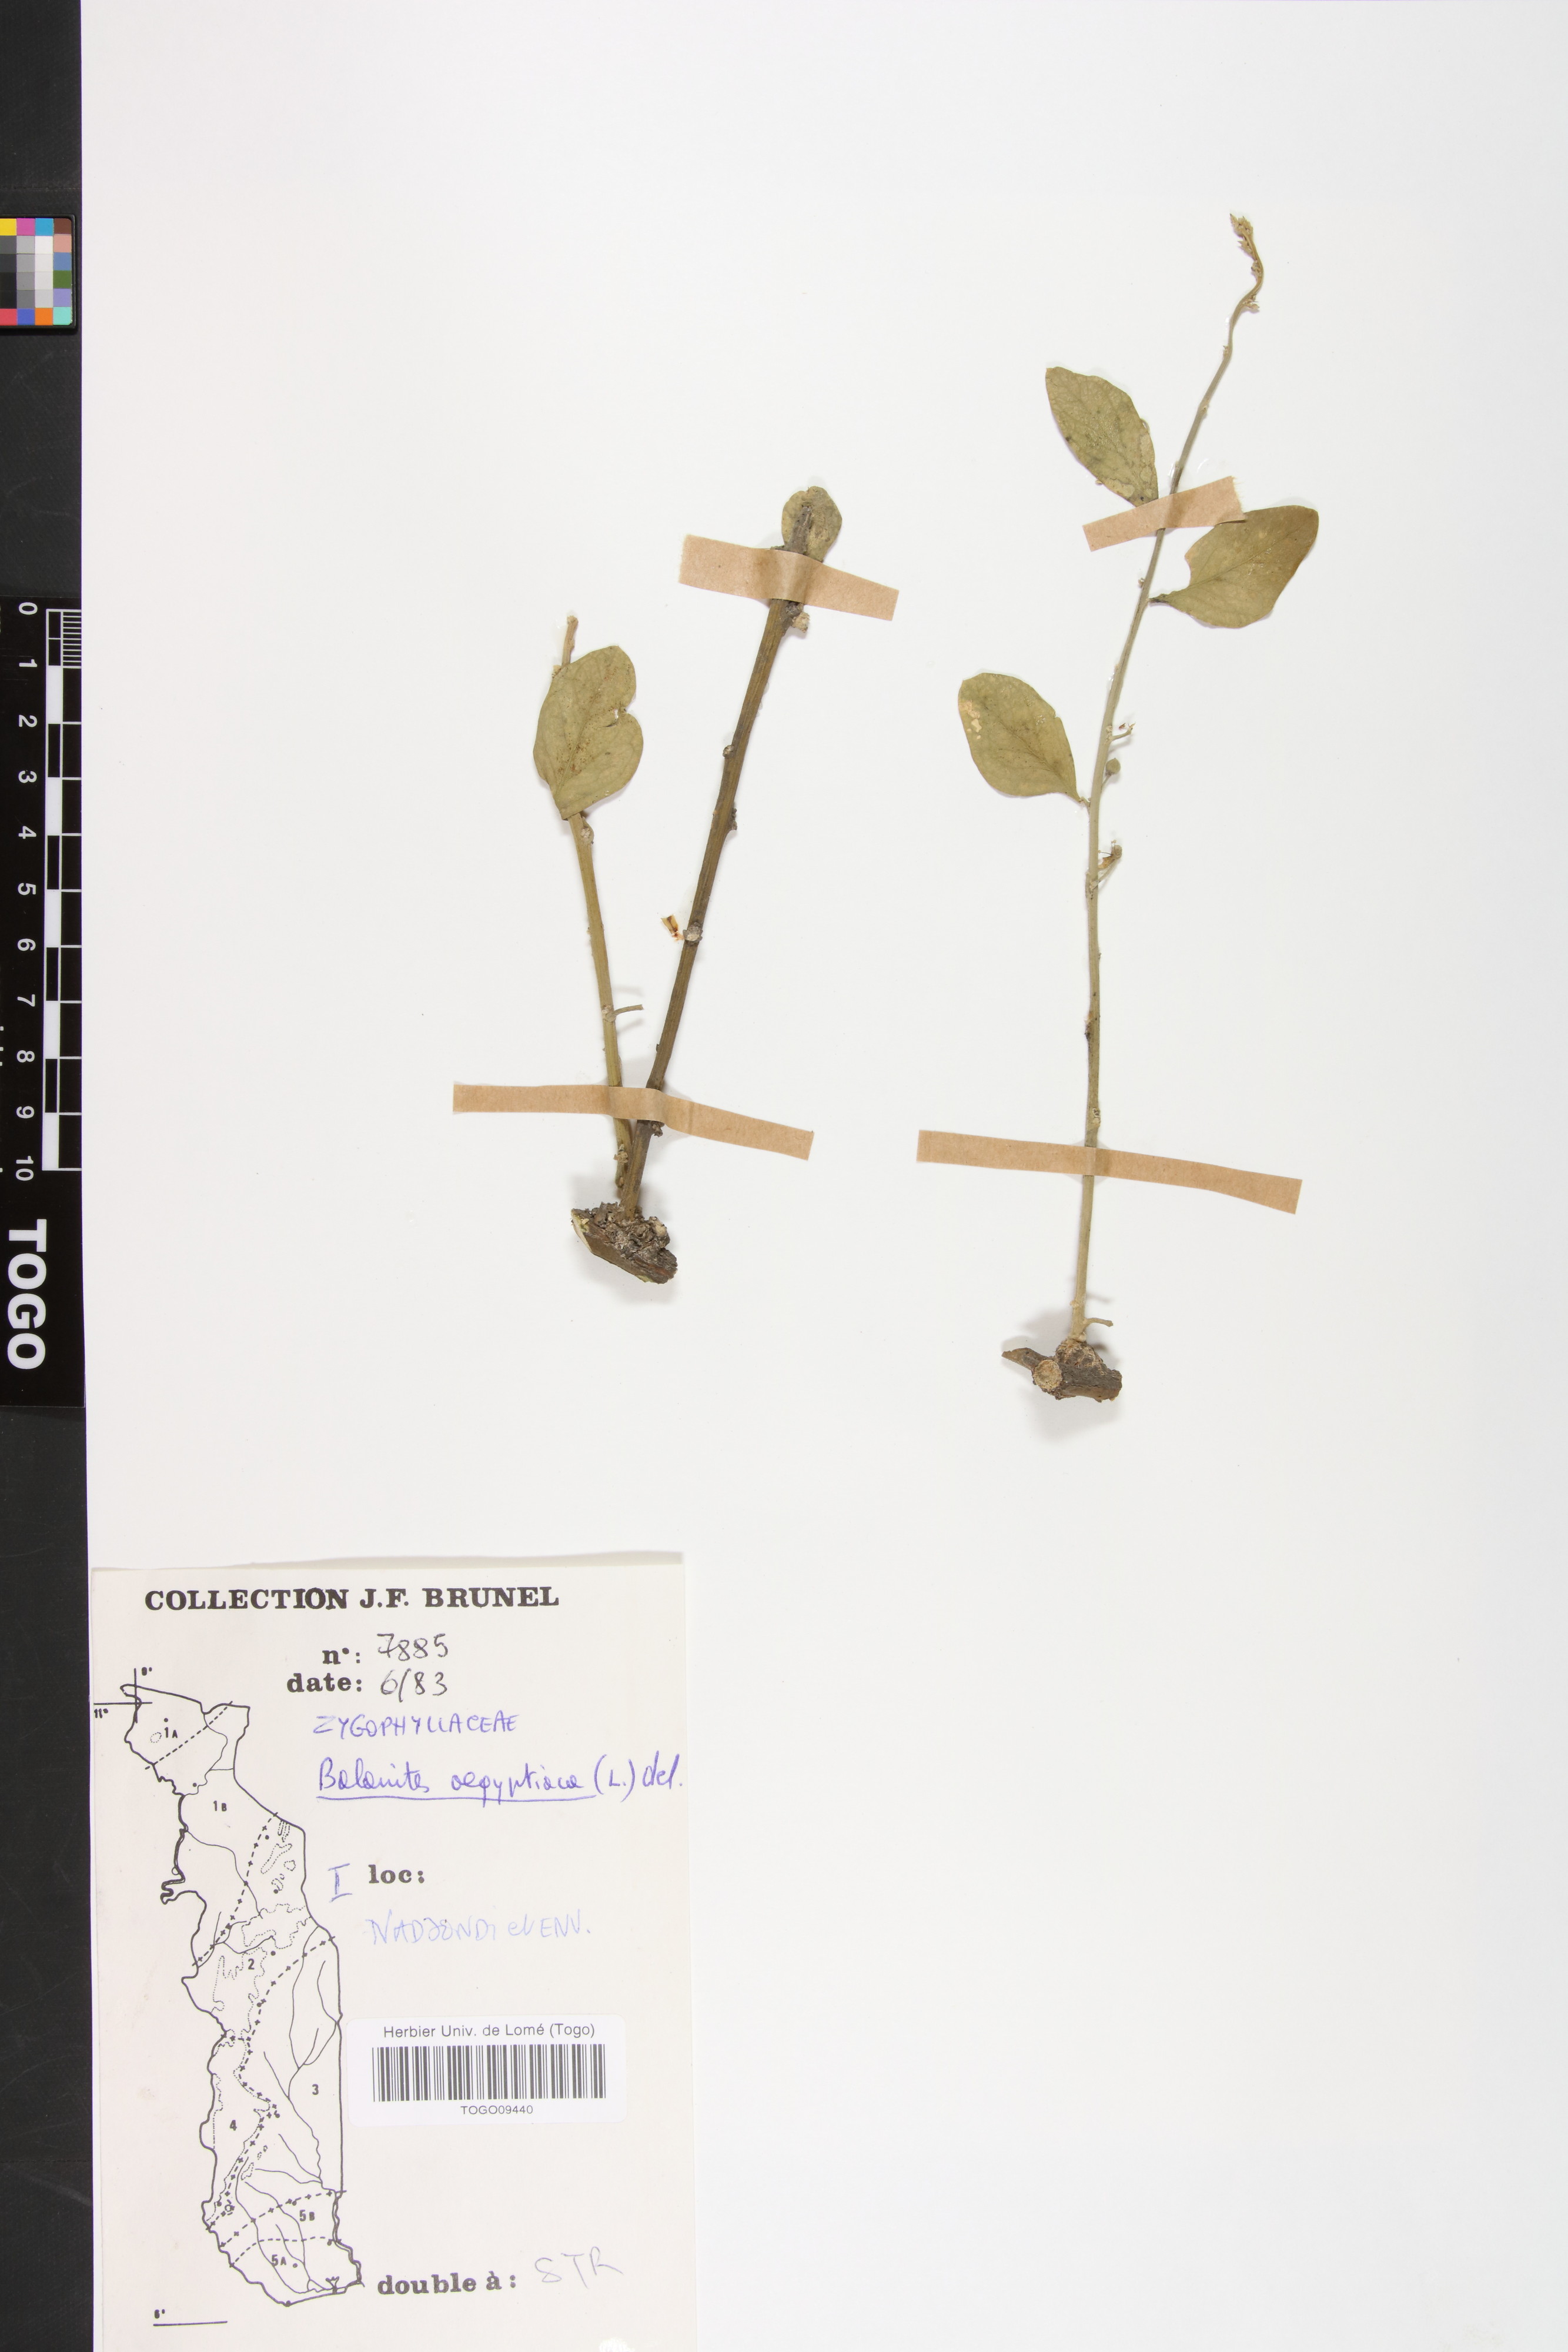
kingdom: Plantae
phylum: Tracheophyta
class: Magnoliopsida
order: Zygophyllales
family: Zygophyllaceae
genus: Balanites
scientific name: Balanites aegyptiaca
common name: Balanites
